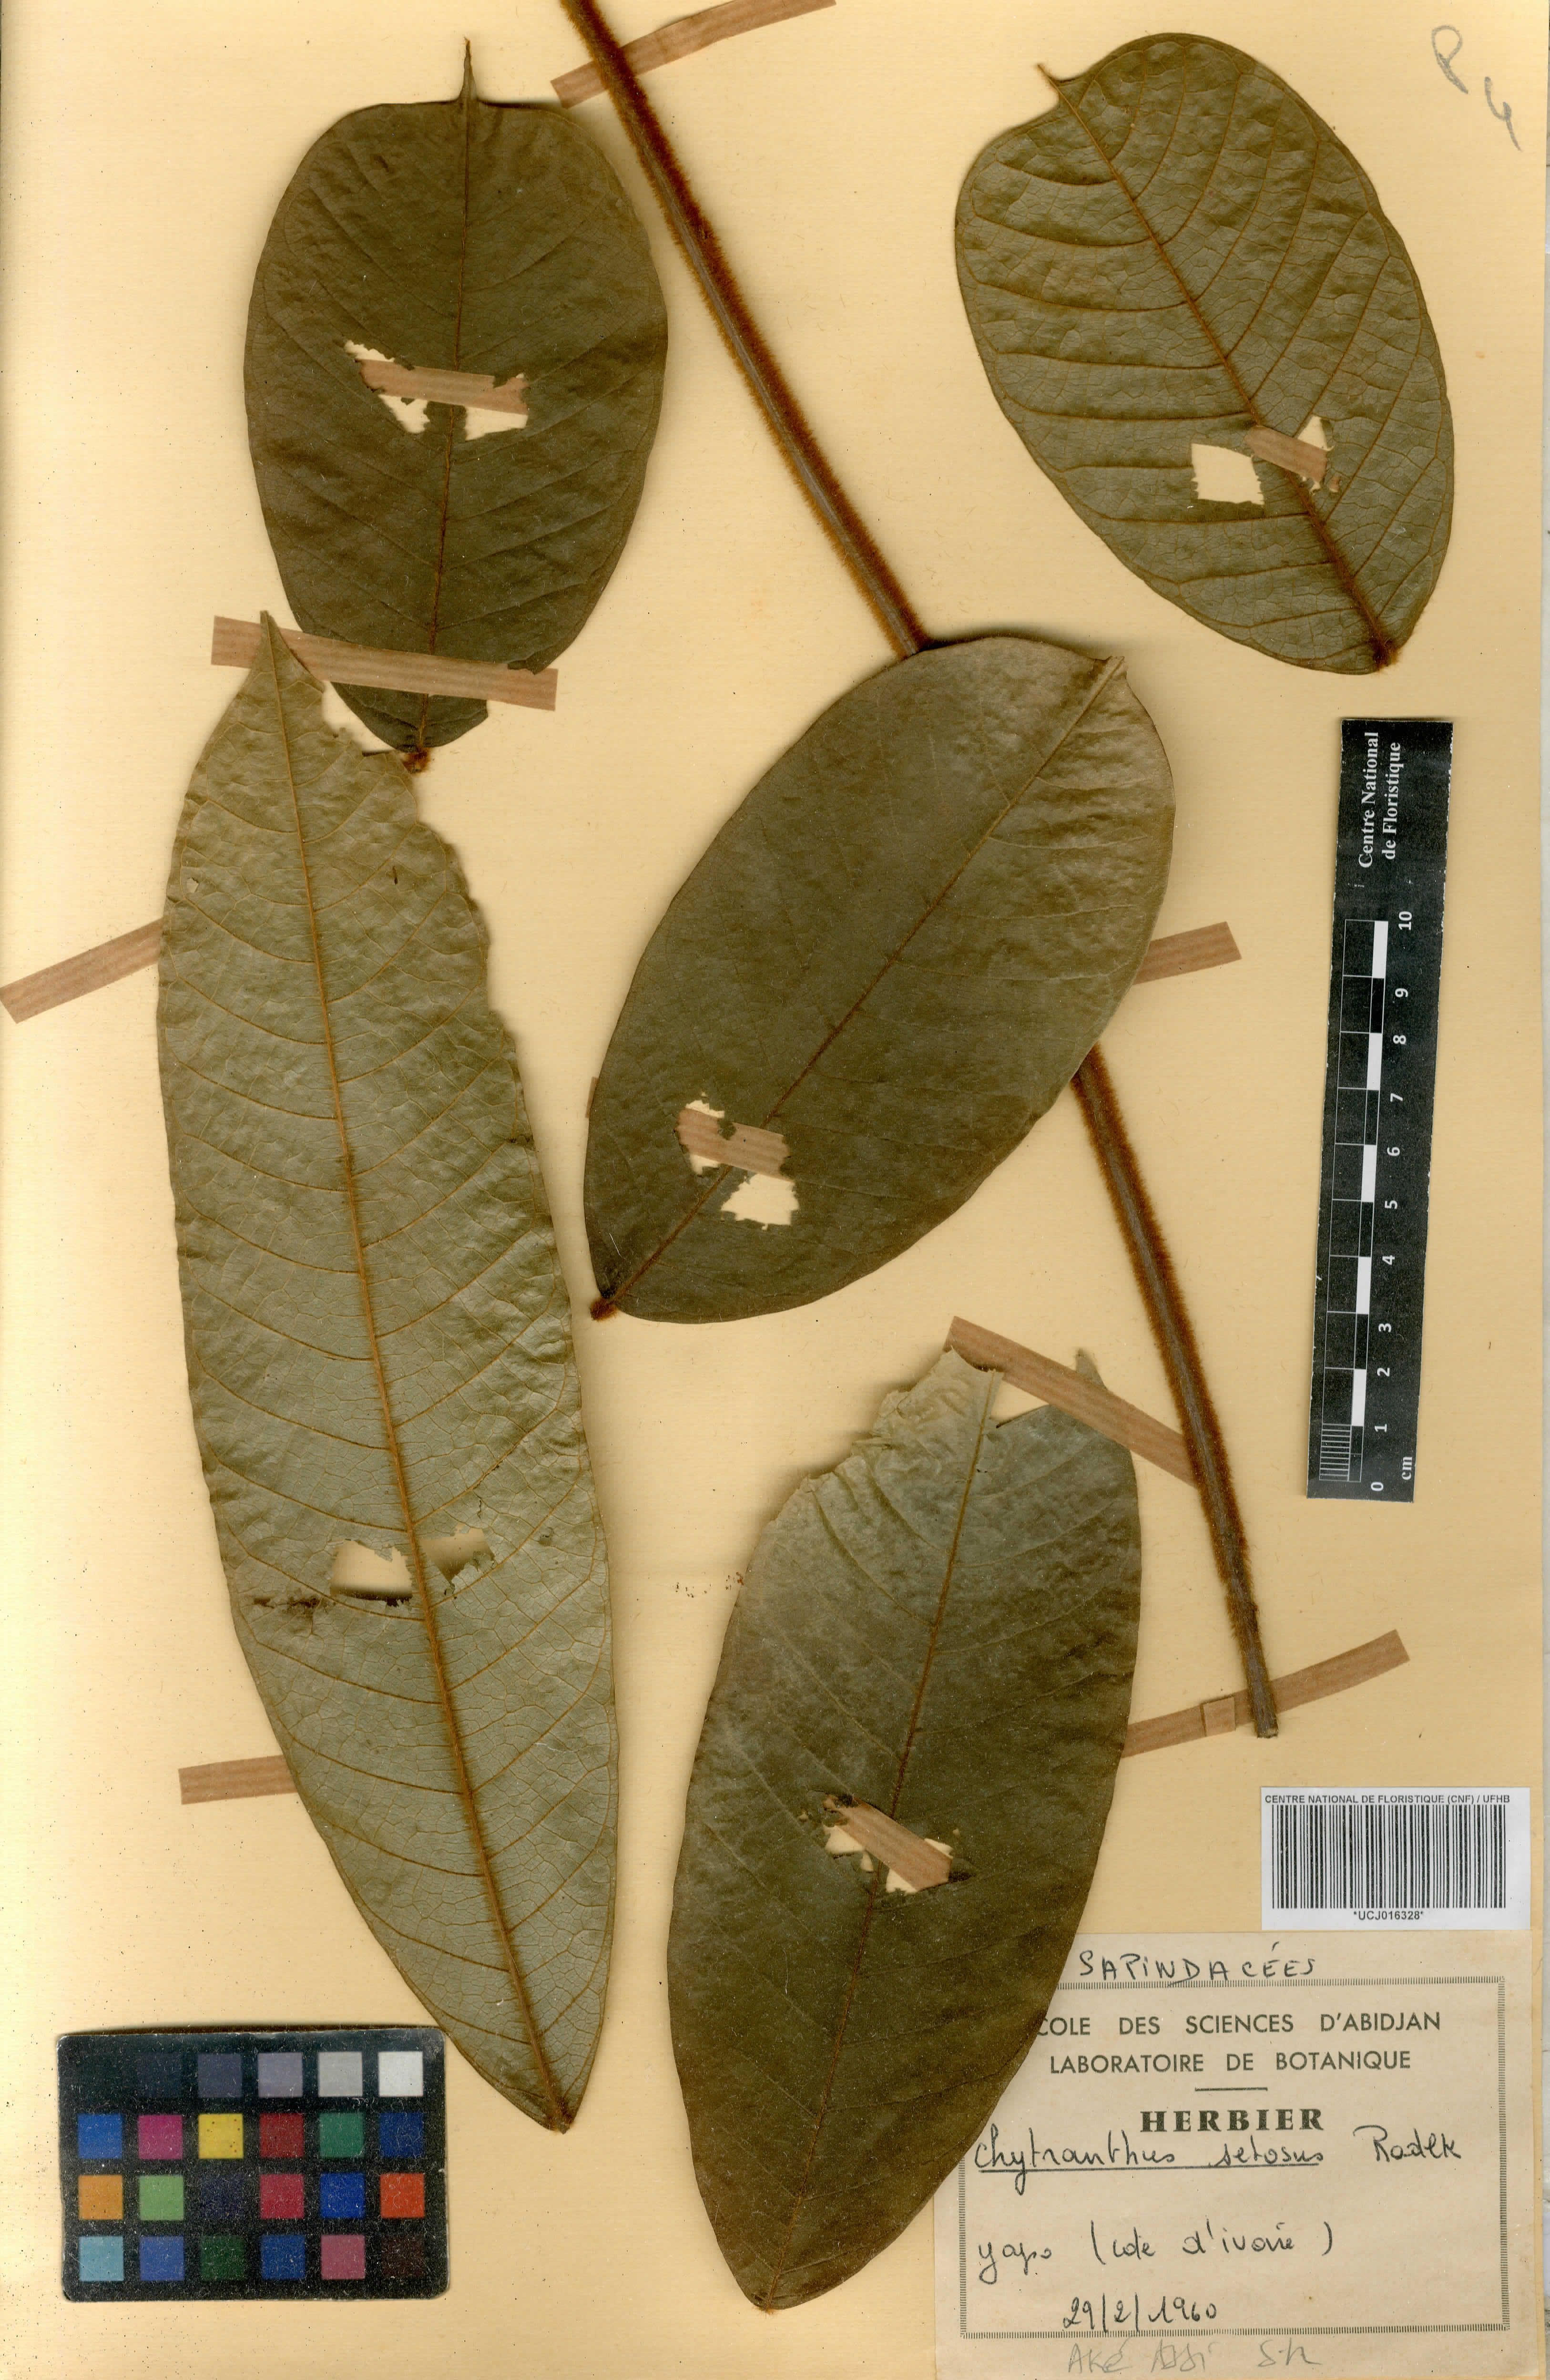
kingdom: Plantae
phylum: Tracheophyta
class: Magnoliopsida
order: Sapindales
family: Sapindaceae
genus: Chytranthus
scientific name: Chytranthus setosus
